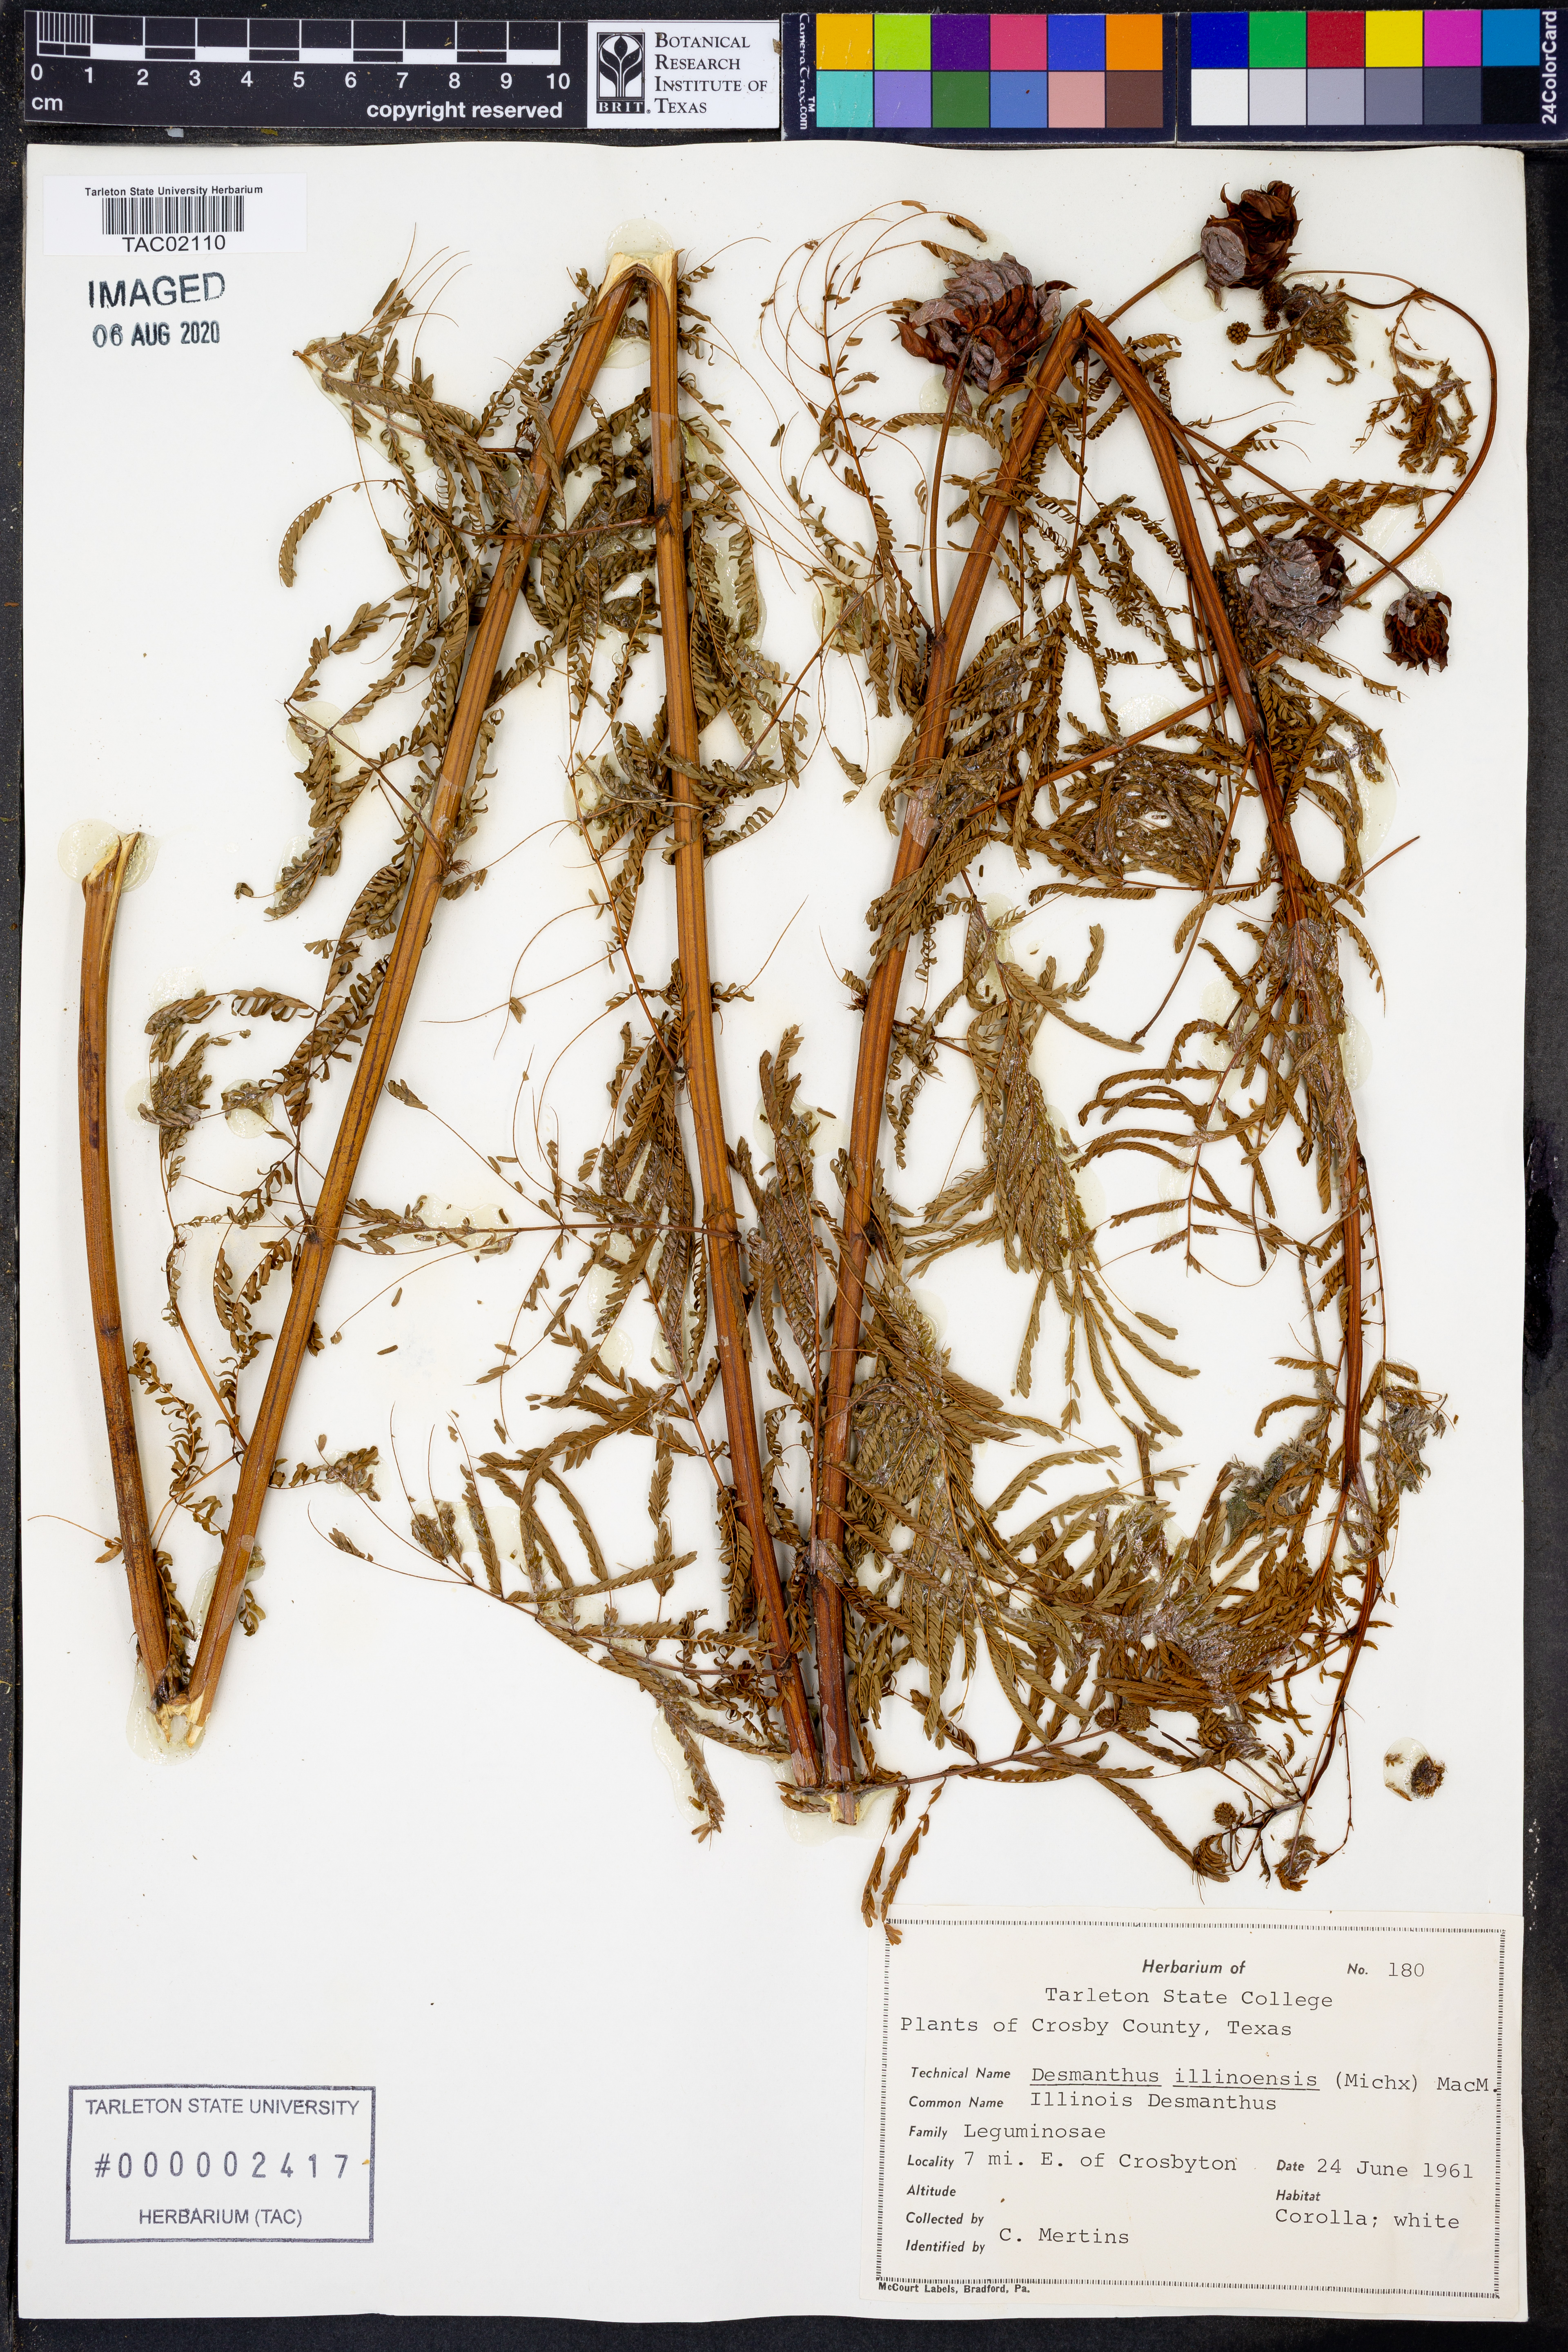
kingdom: Plantae
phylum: Tracheophyta
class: Magnoliopsida
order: Fabales
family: Fabaceae
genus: Desmanthus
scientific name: Desmanthus illinoensis
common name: Illinois bundle-flower
